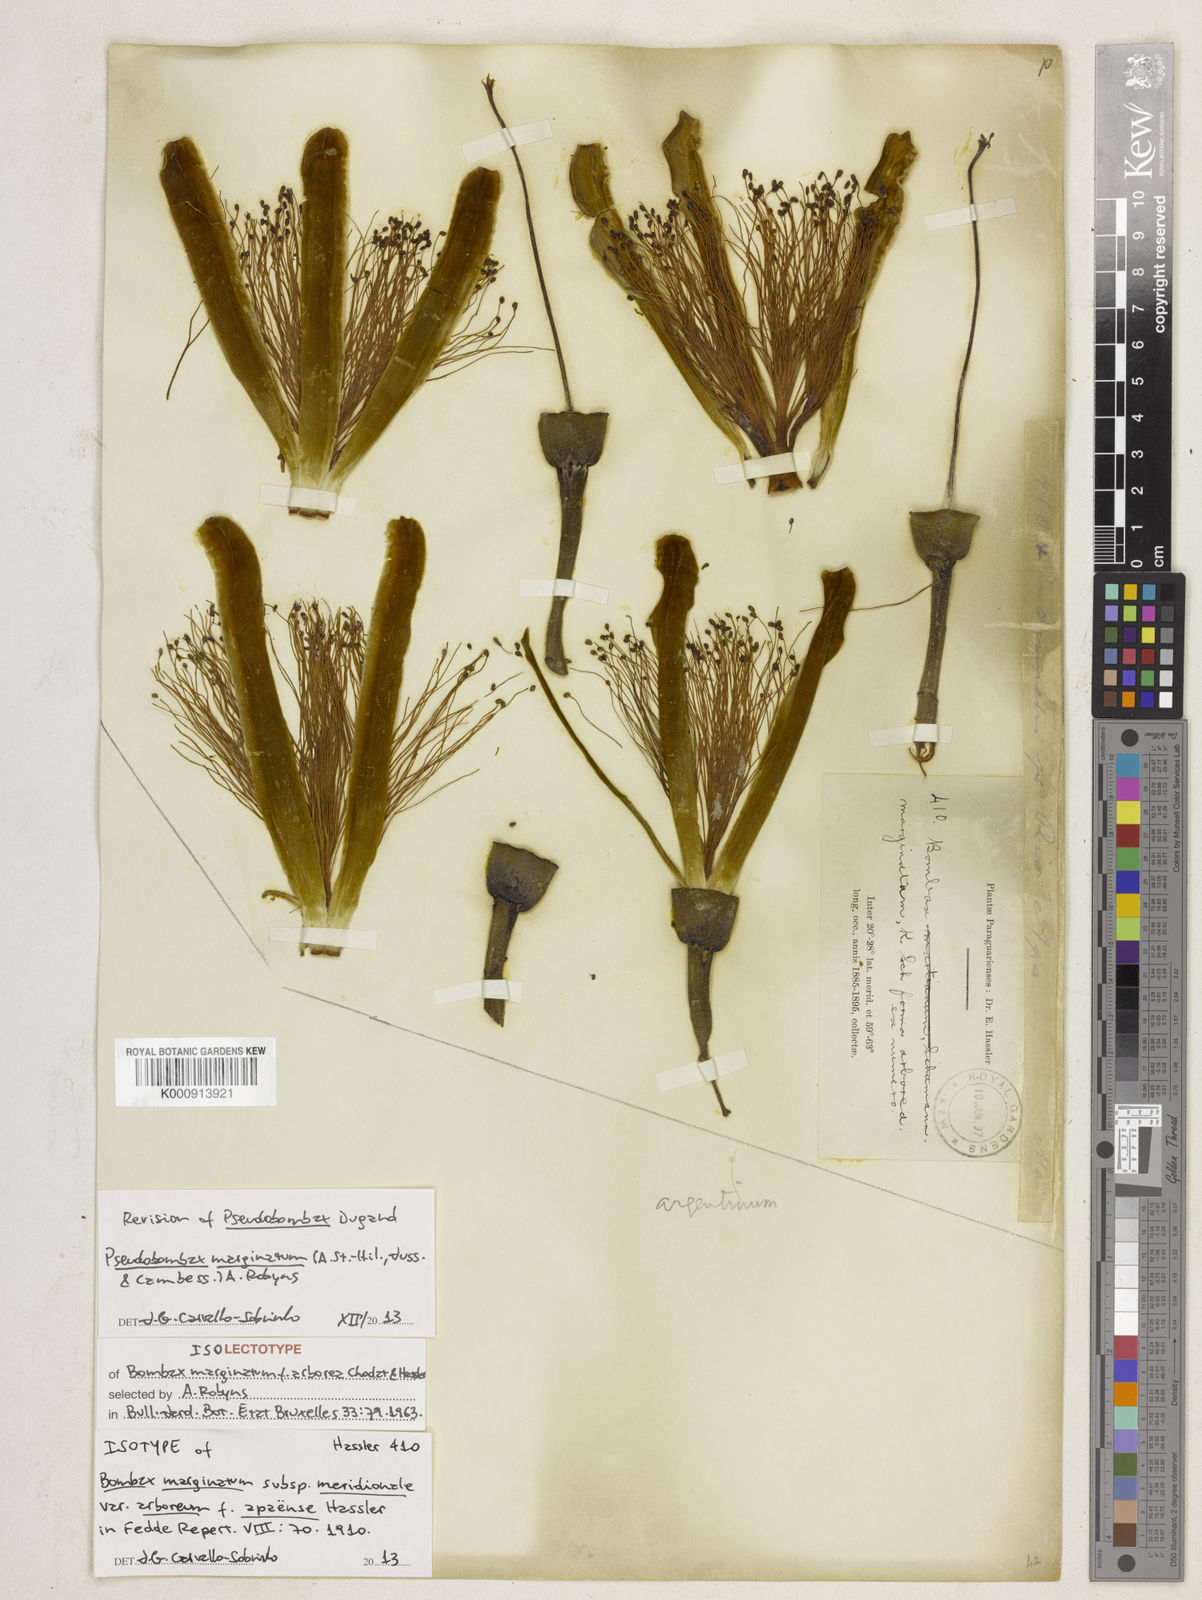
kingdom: Plantae
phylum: Tracheophyta
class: Magnoliopsida
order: Malvales
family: Malvaceae
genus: Pseudobombax
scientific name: Pseudobombax
